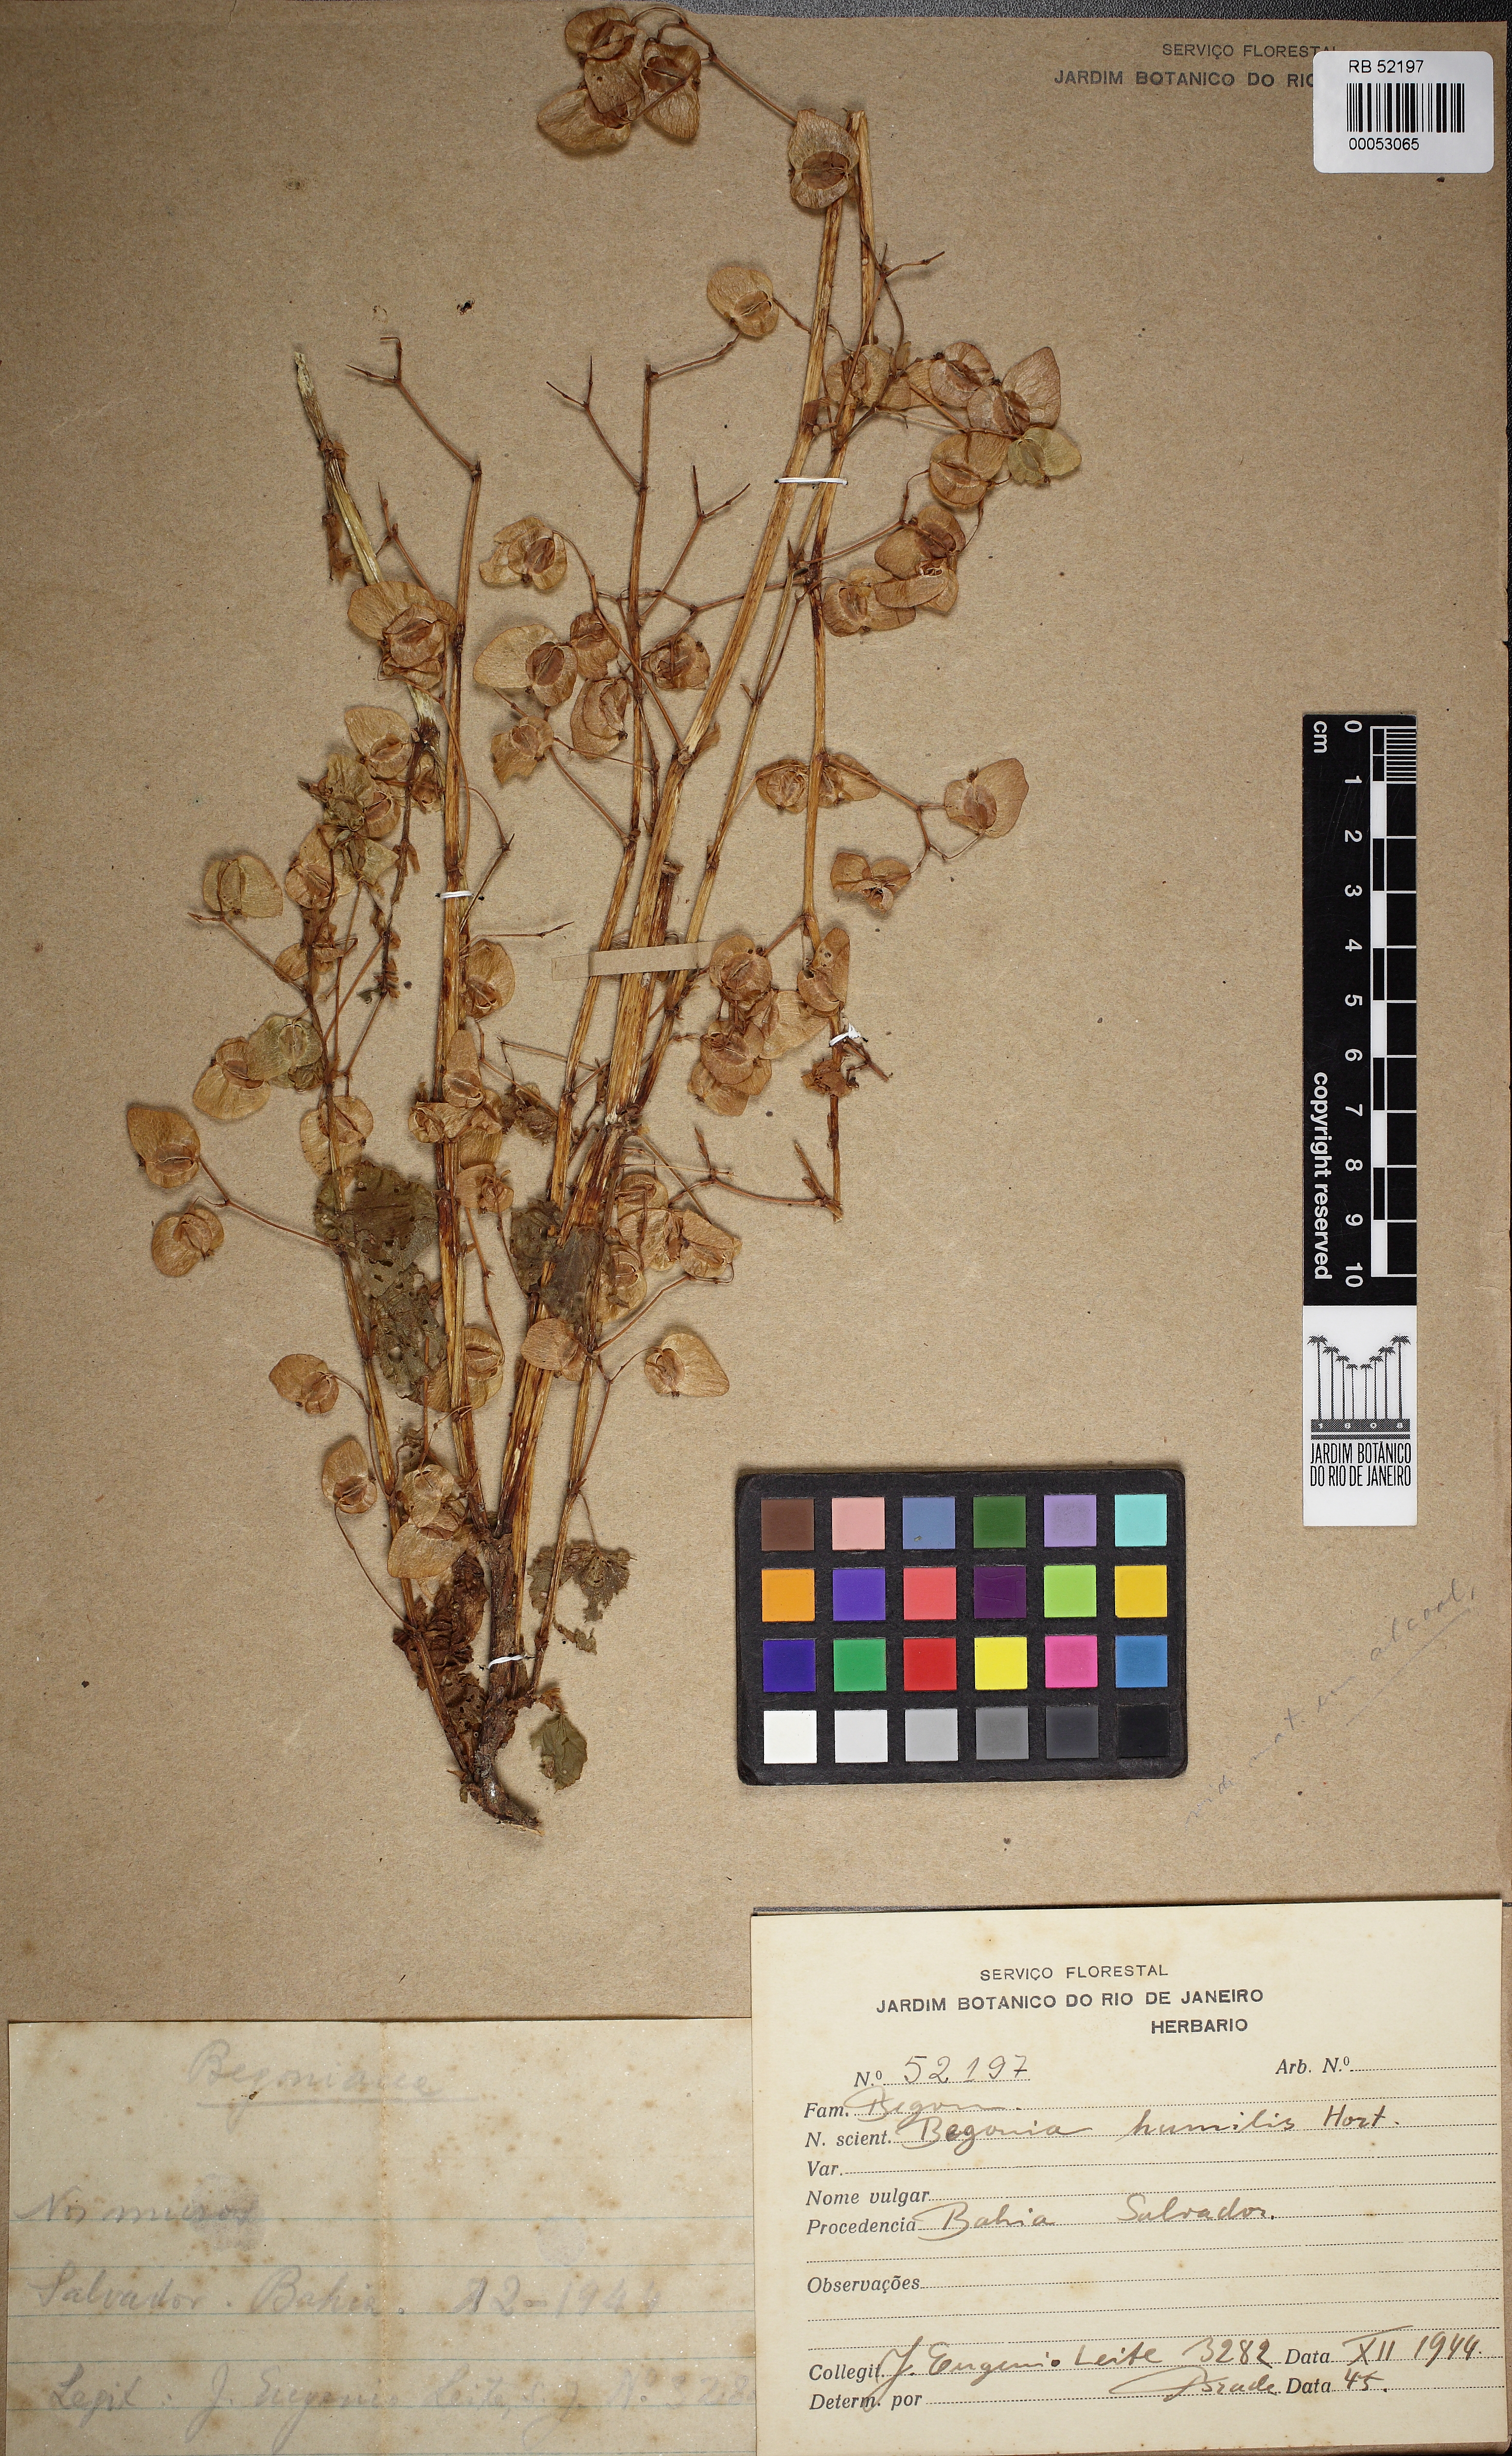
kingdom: Plantae
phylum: Tracheophyta
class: Magnoliopsida
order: Cucurbitales
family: Begoniaceae
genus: Begonia
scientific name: Begonia hirtella
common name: Brazilian begonia
